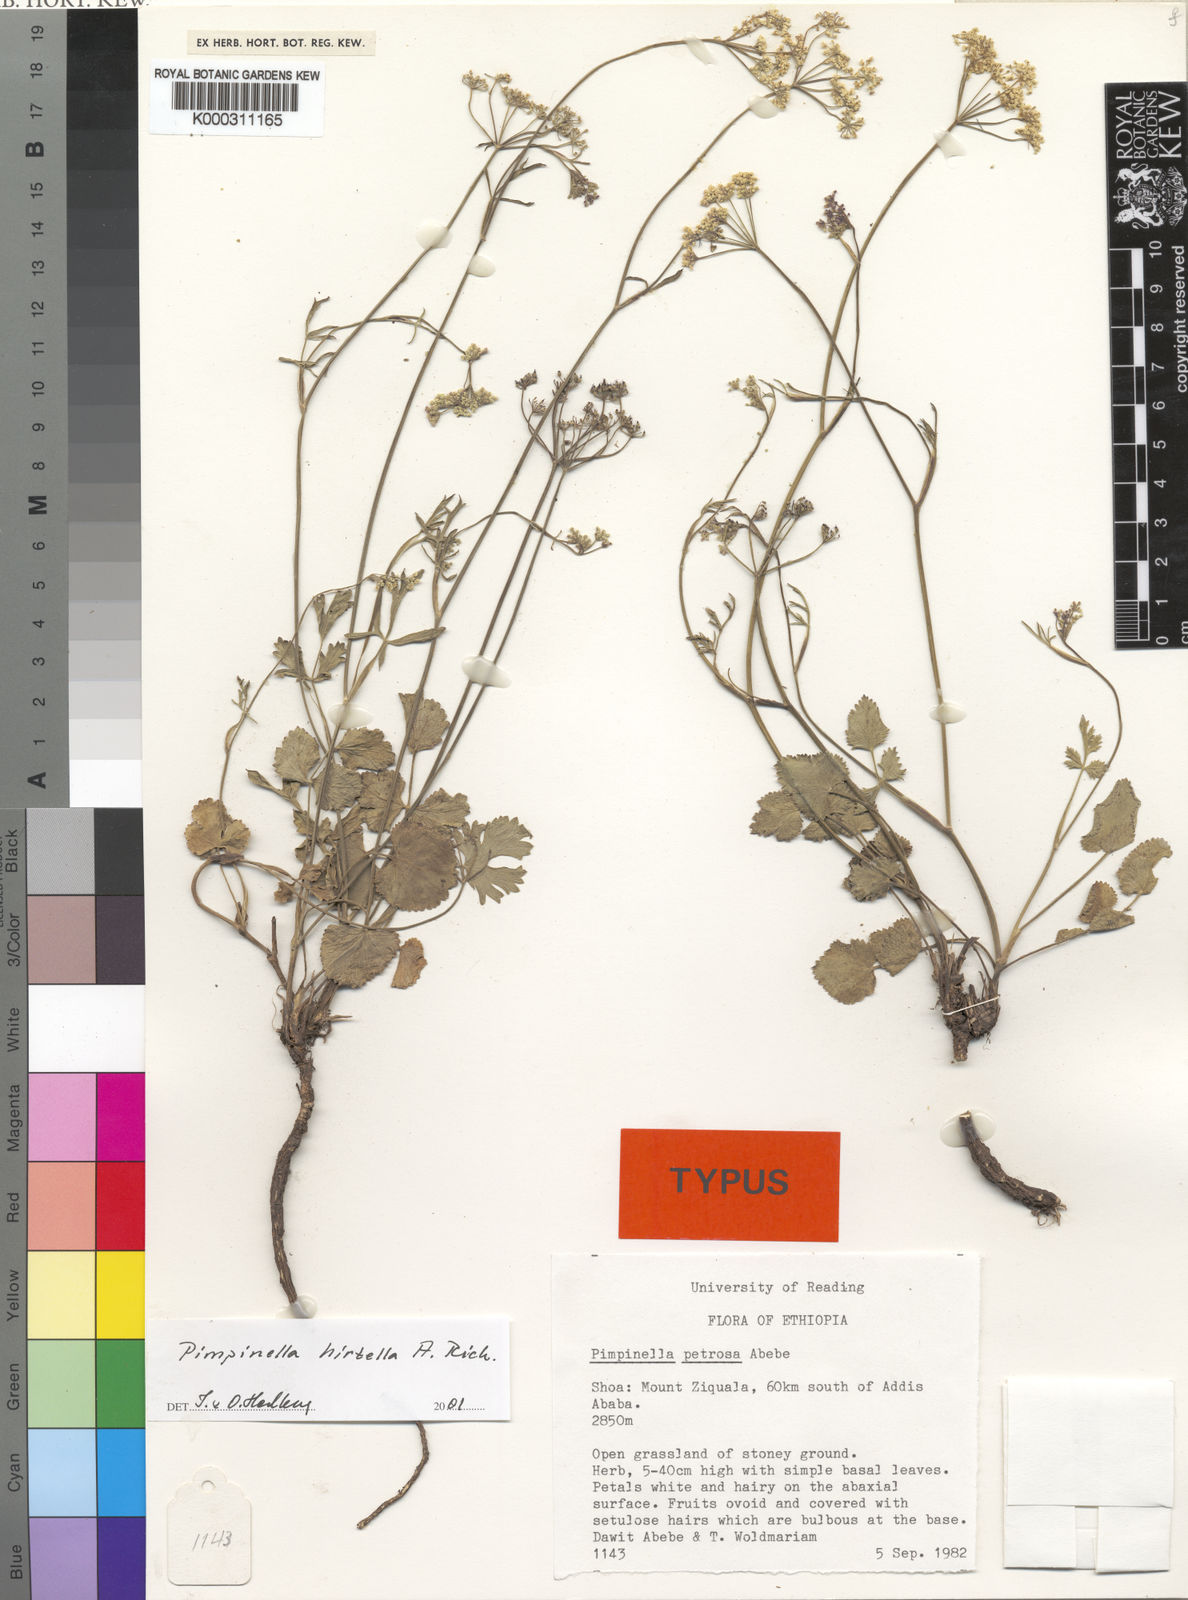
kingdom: Plantae
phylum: Tracheophyta
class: Magnoliopsida
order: Apiales
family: Apiaceae
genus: Pimpinella
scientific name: Pimpinella
